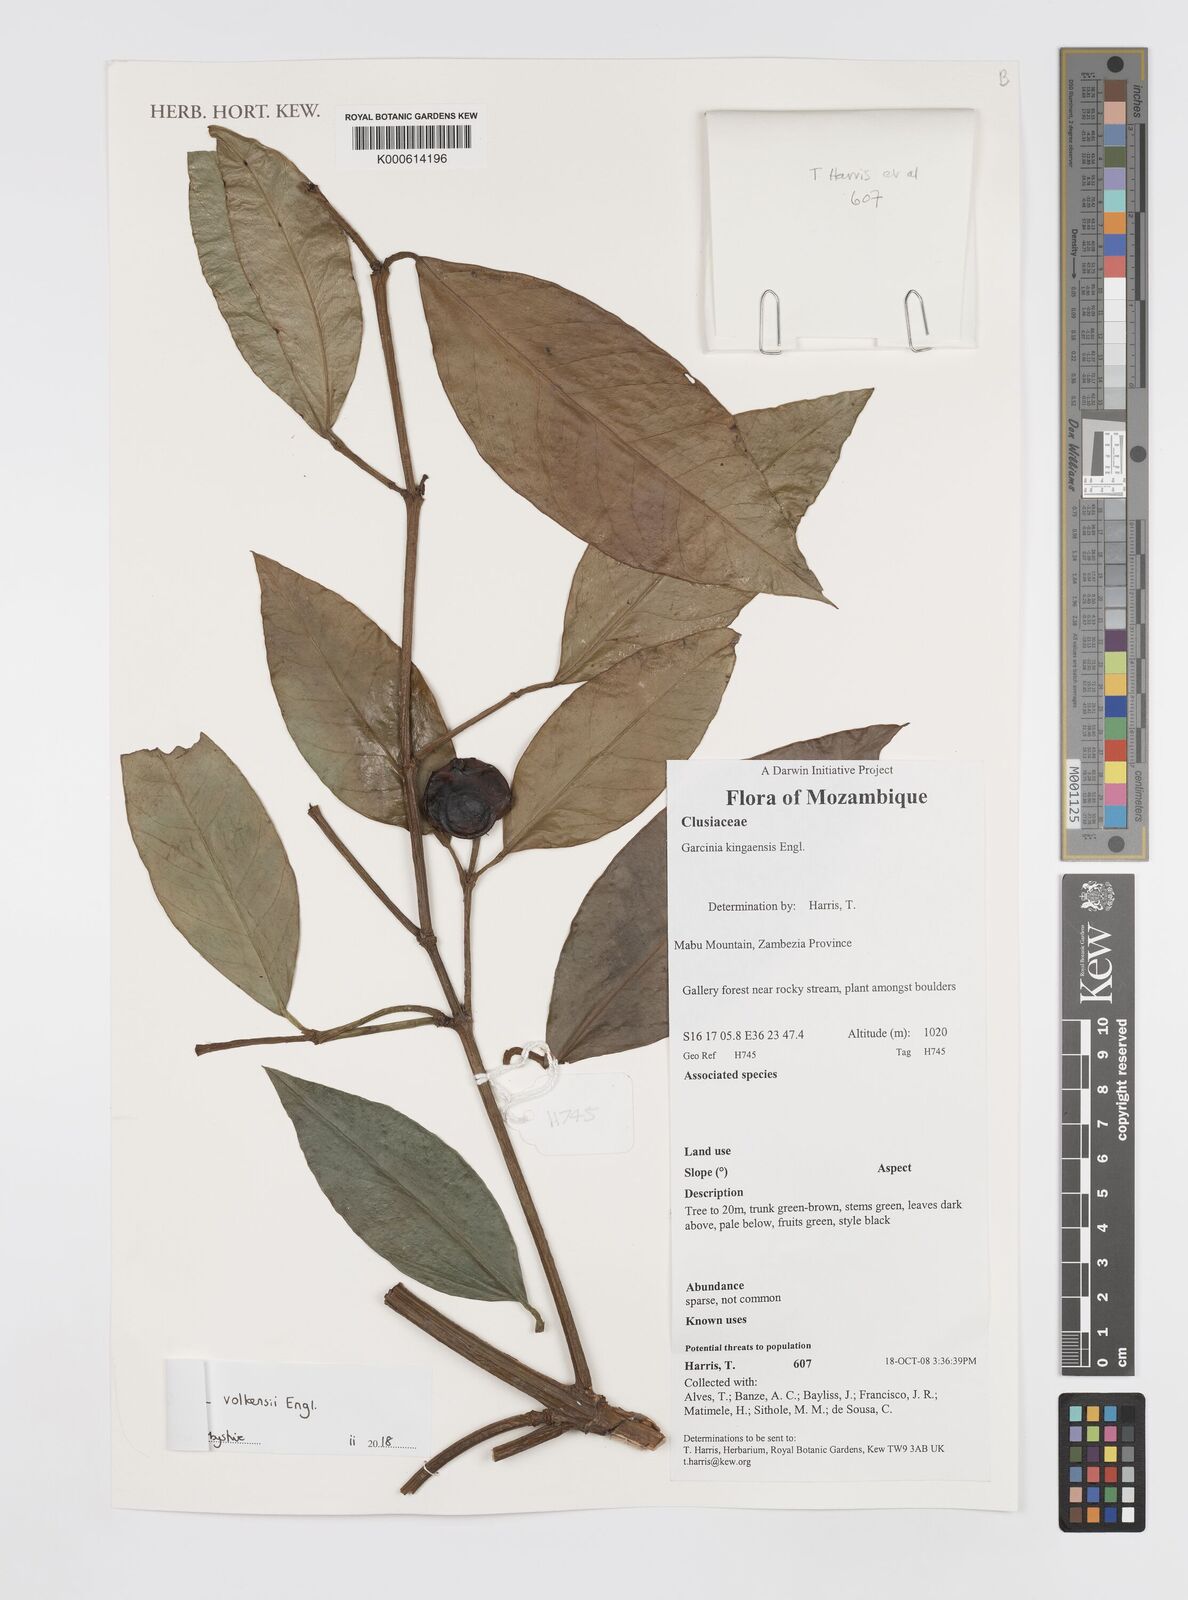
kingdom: Plantae
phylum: Tracheophyta
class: Magnoliopsida
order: Malpighiales
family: Clusiaceae
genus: Garcinia
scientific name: Garcinia kingaensis
